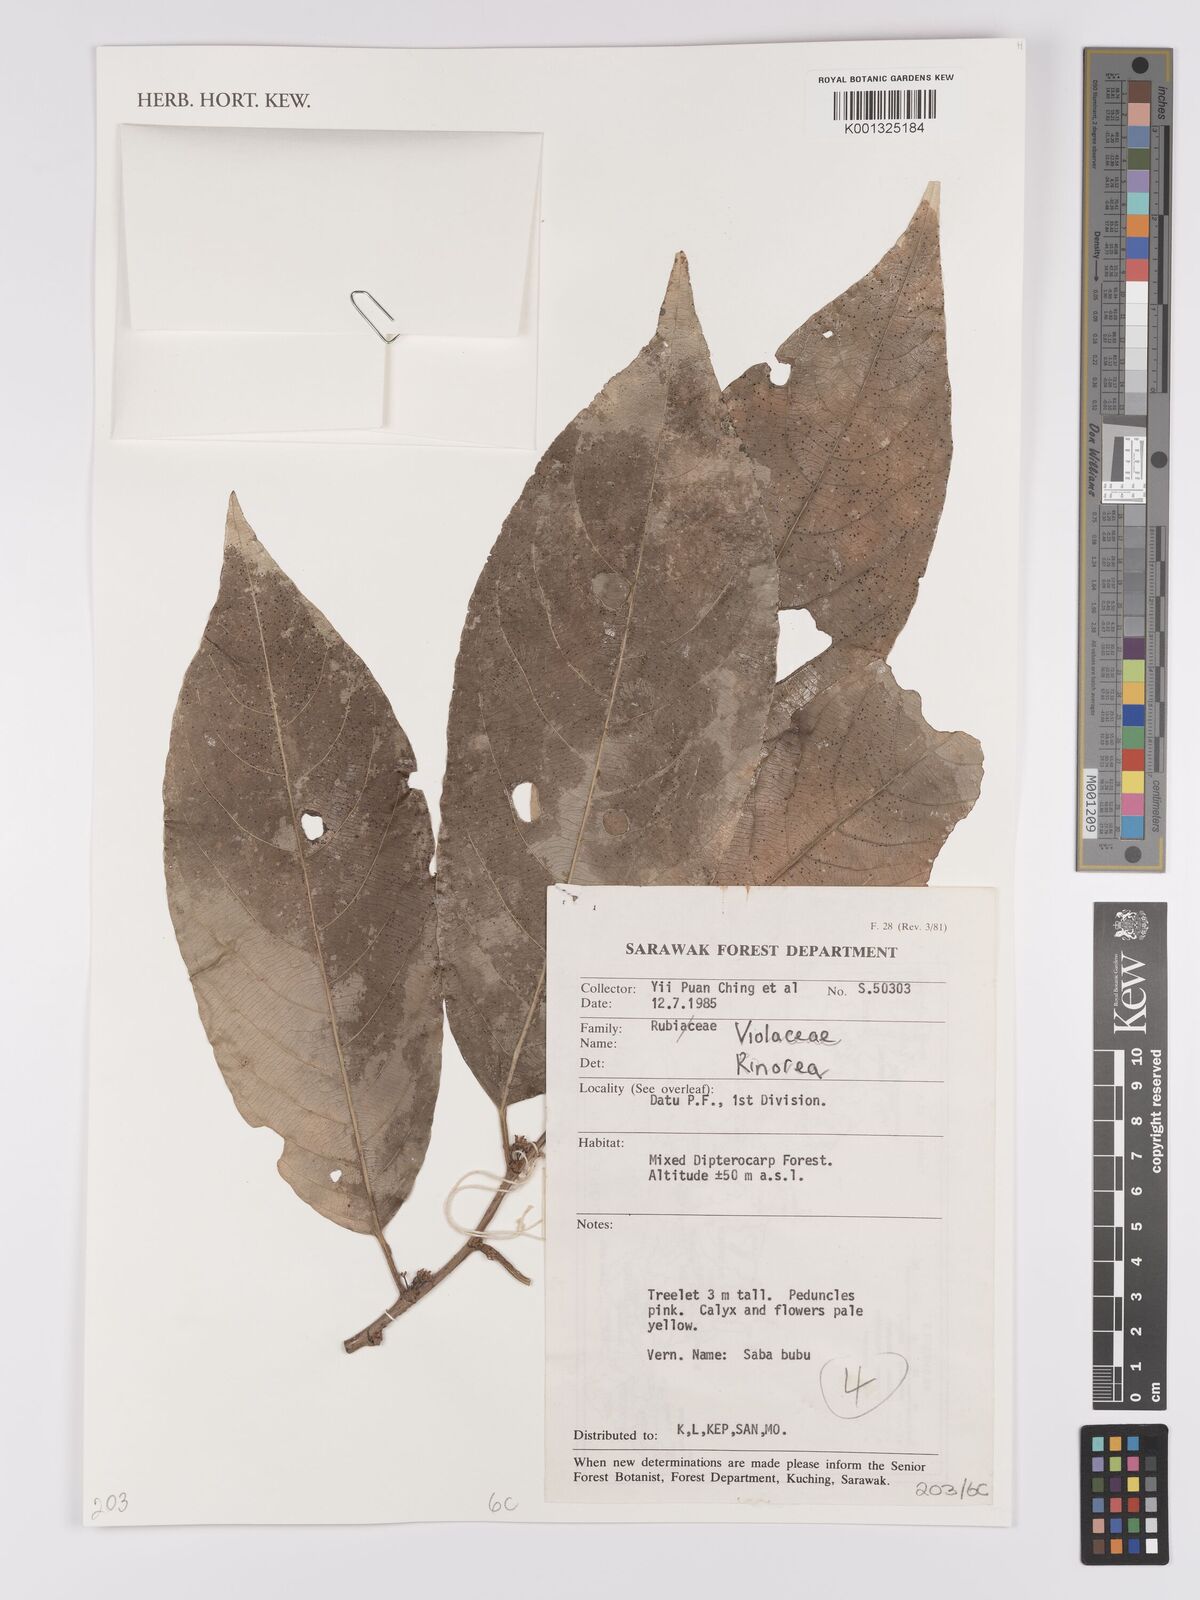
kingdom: Plantae
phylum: Tracheophyta
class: Magnoliopsida
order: Malpighiales
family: Violaceae
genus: Rinorea
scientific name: Rinorea
